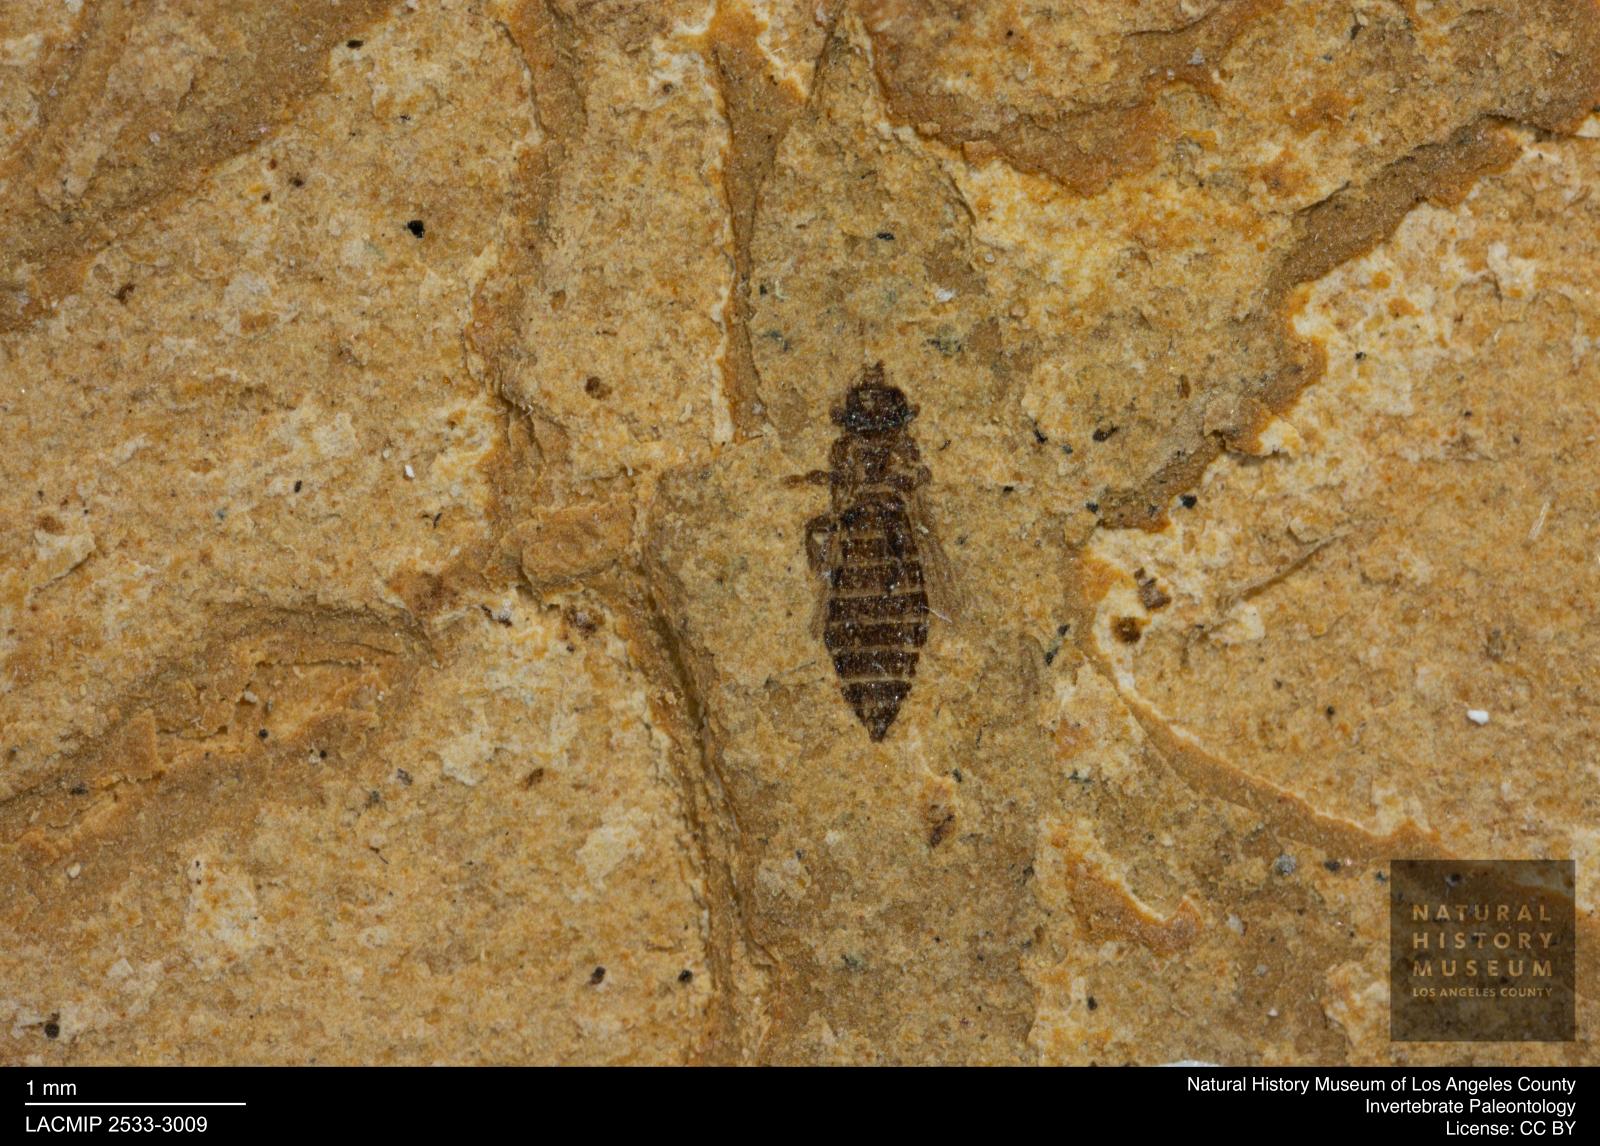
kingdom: Animalia
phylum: Arthropoda
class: Insecta
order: Thysanoptera
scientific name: Thysanoptera
